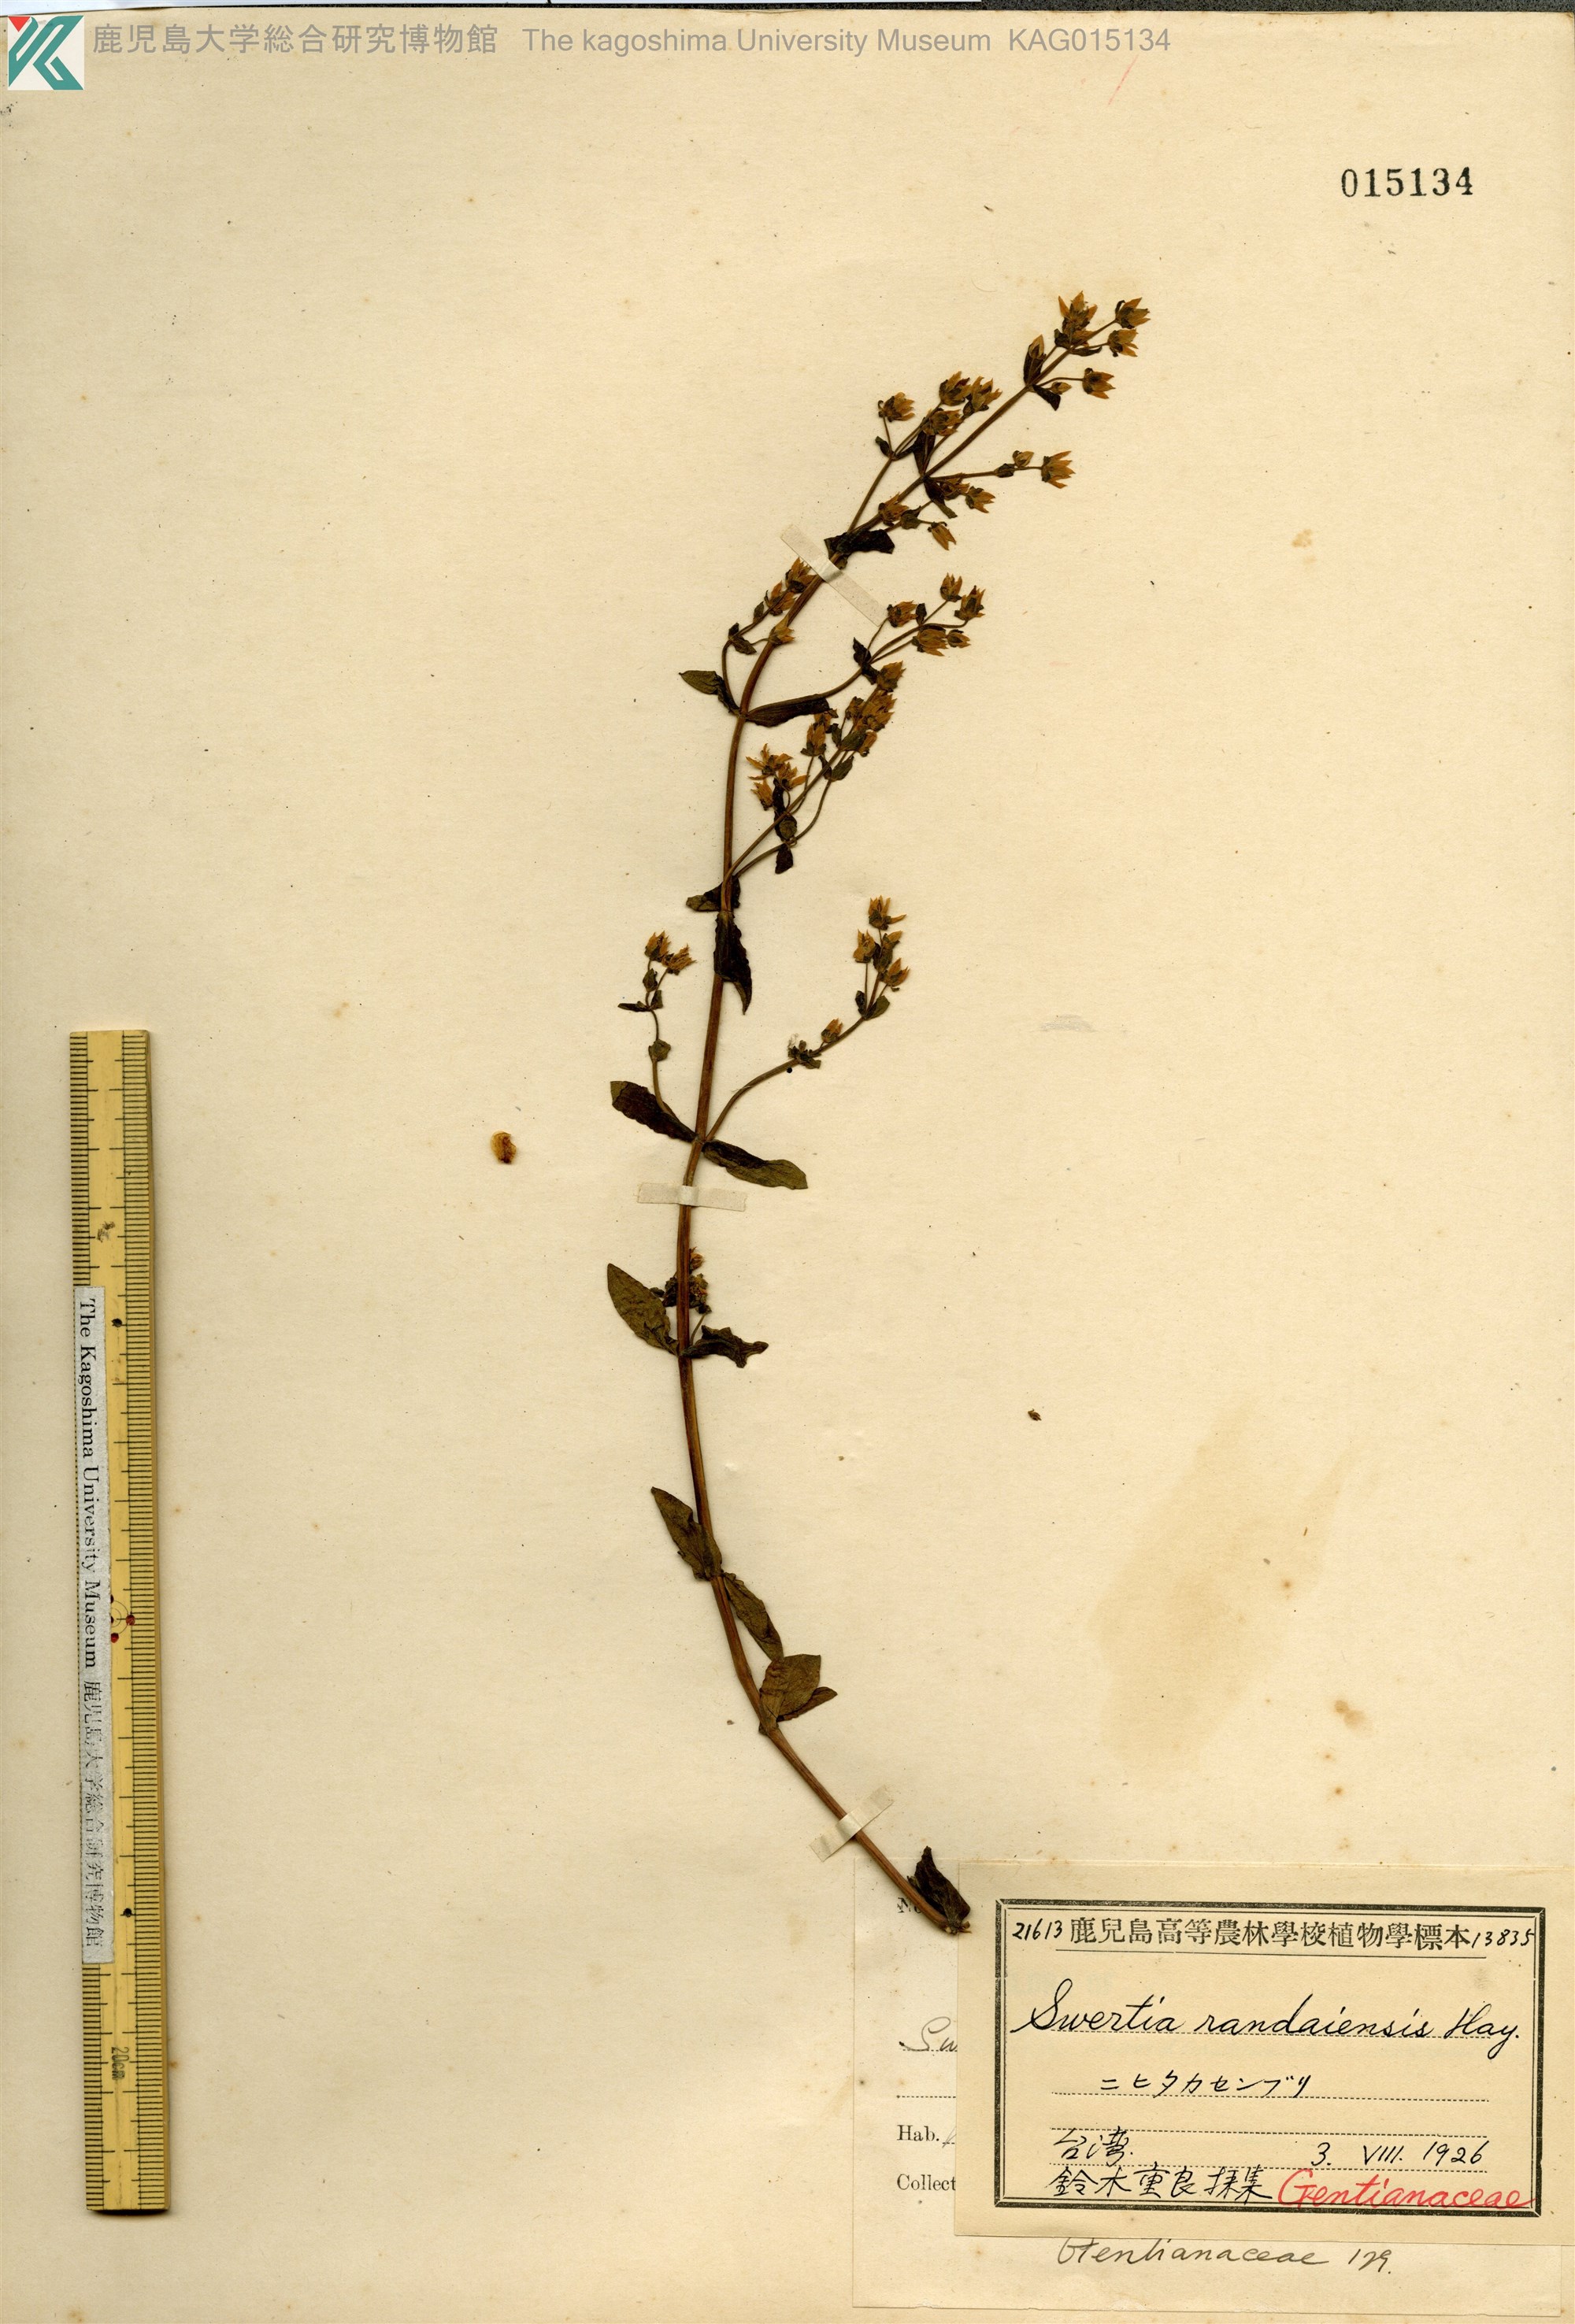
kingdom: Plantae
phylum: Tracheophyta
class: Magnoliopsida
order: Gentianales
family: Gentianaceae
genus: Swertia
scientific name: Swertia macrosperma
